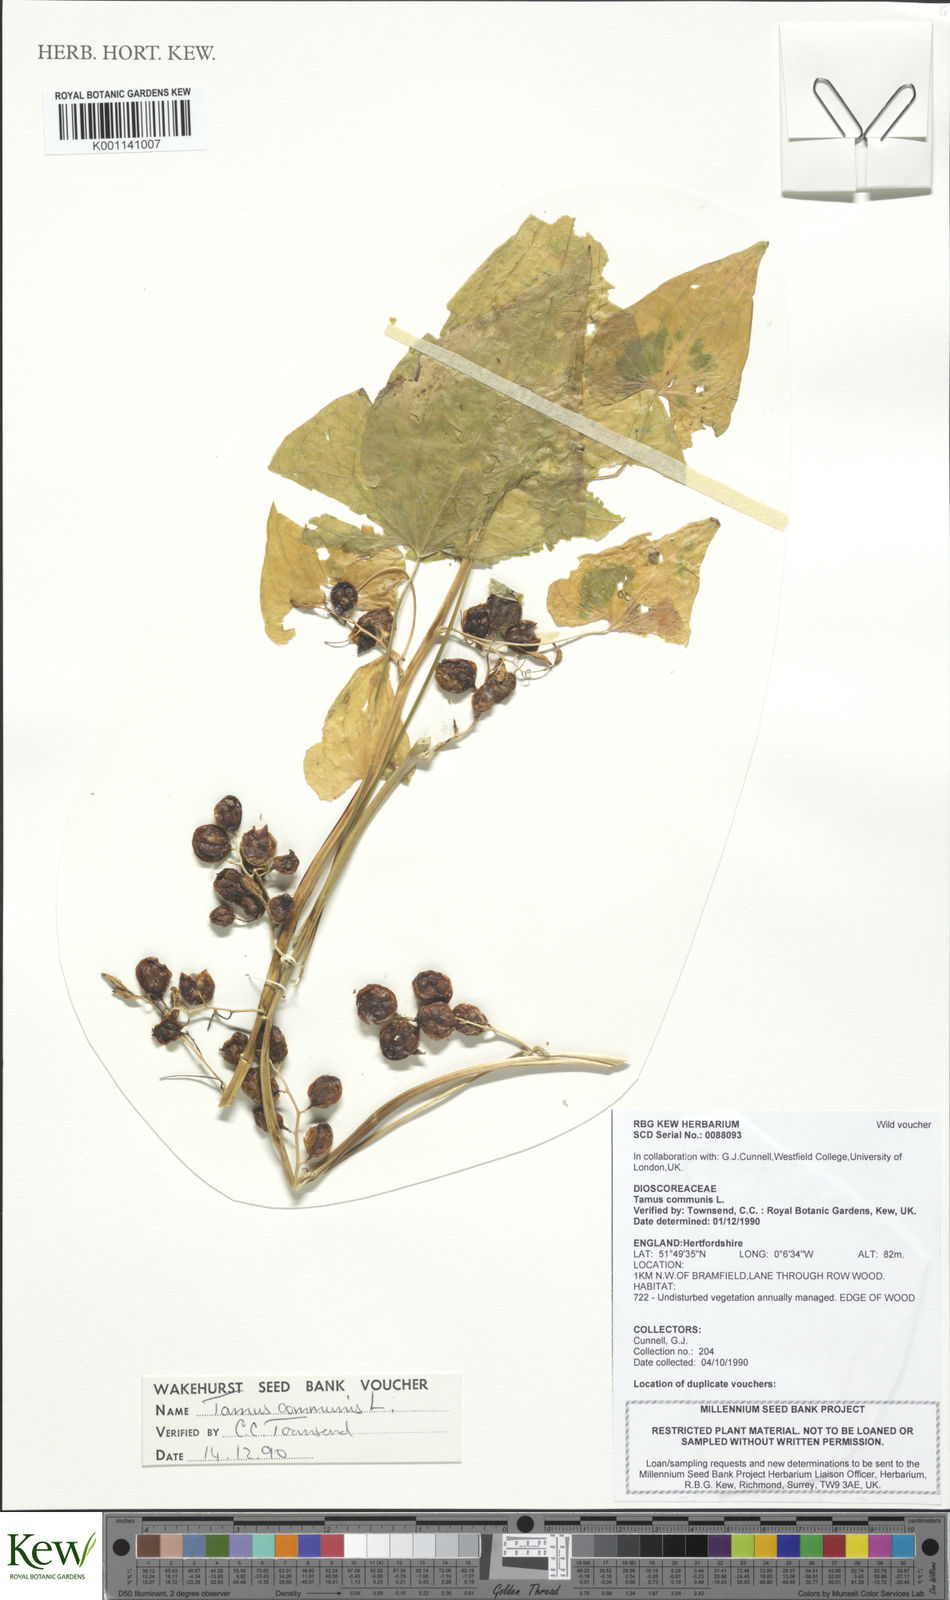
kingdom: Plantae
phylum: Tracheophyta
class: Liliopsida
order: Dioscoreales
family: Dioscoreaceae
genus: Dioscorea
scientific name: Dioscorea communis
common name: Black-bindweed
